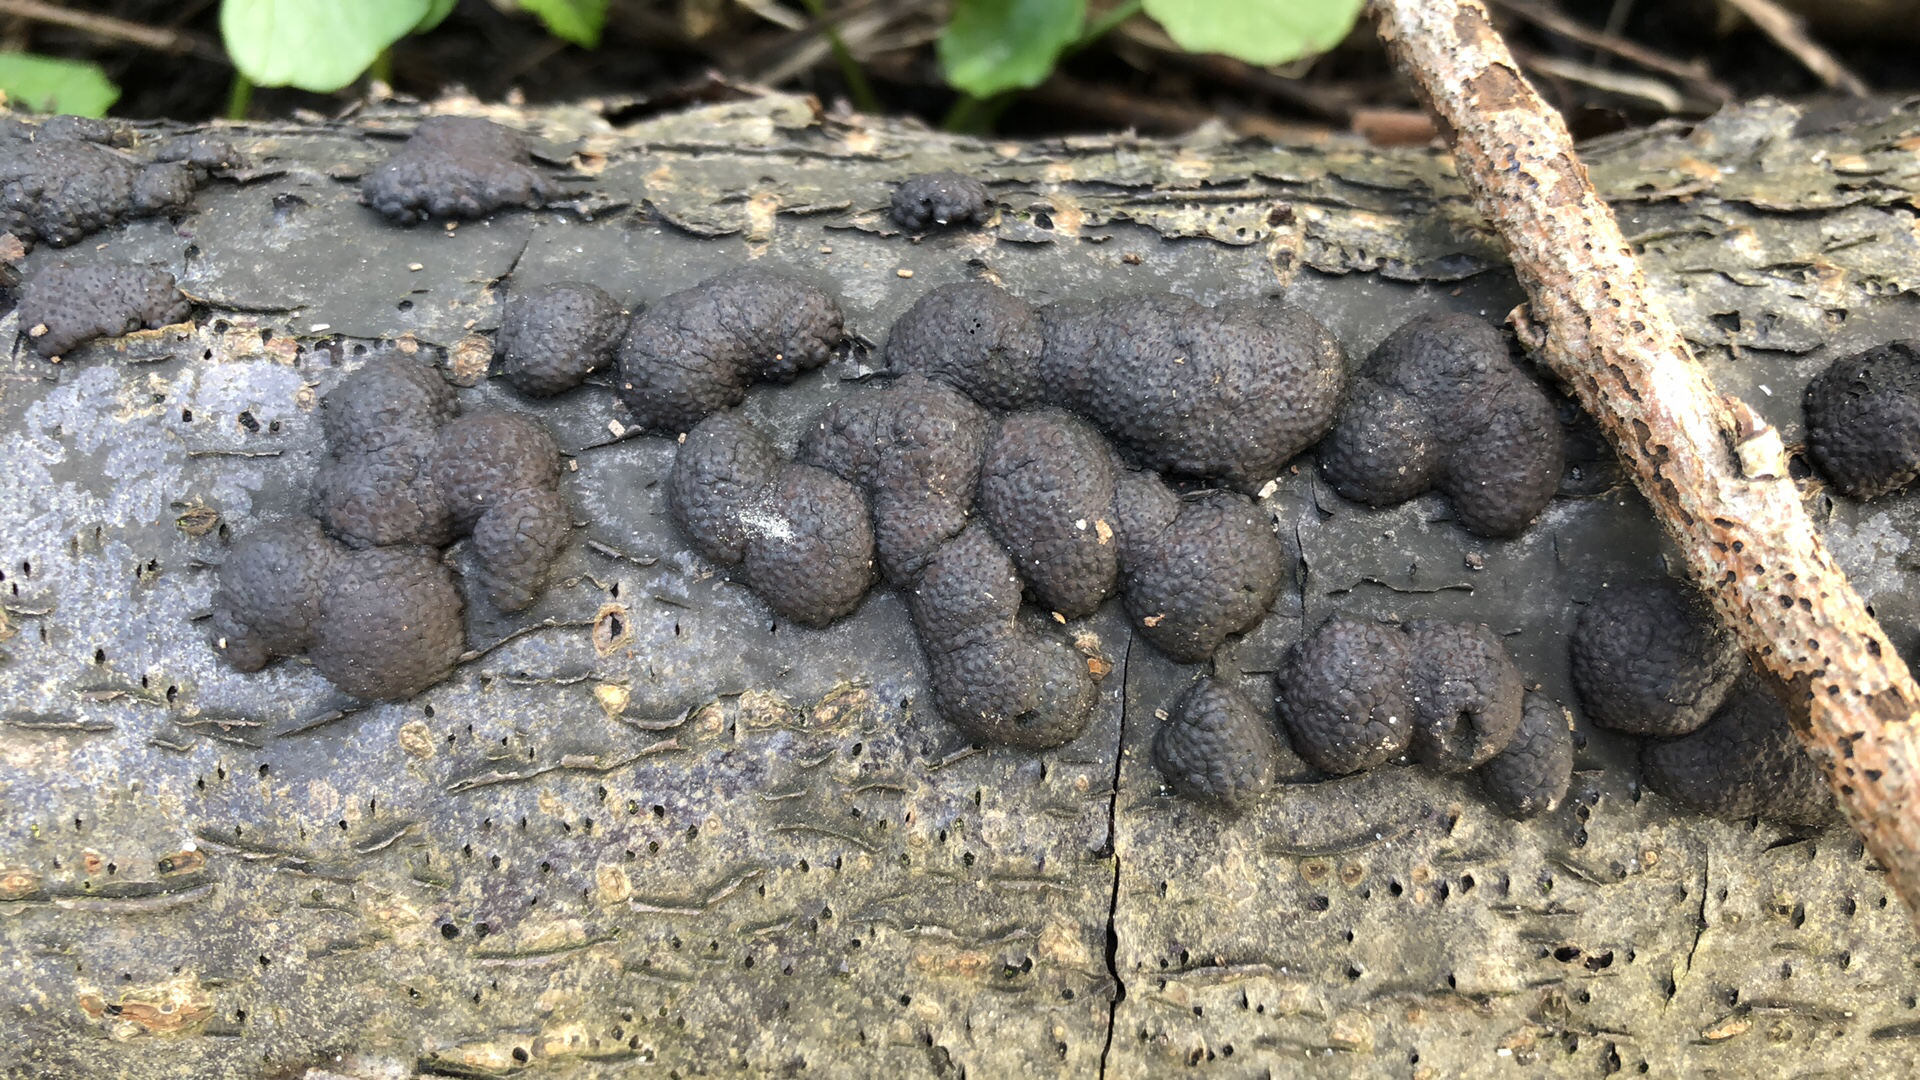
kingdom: Fungi
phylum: Ascomycota
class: Sordariomycetes
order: Xylariales
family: Hypoxylaceae
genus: Jackrogersella
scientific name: Jackrogersella multiformis
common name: foranderlig kulbær
